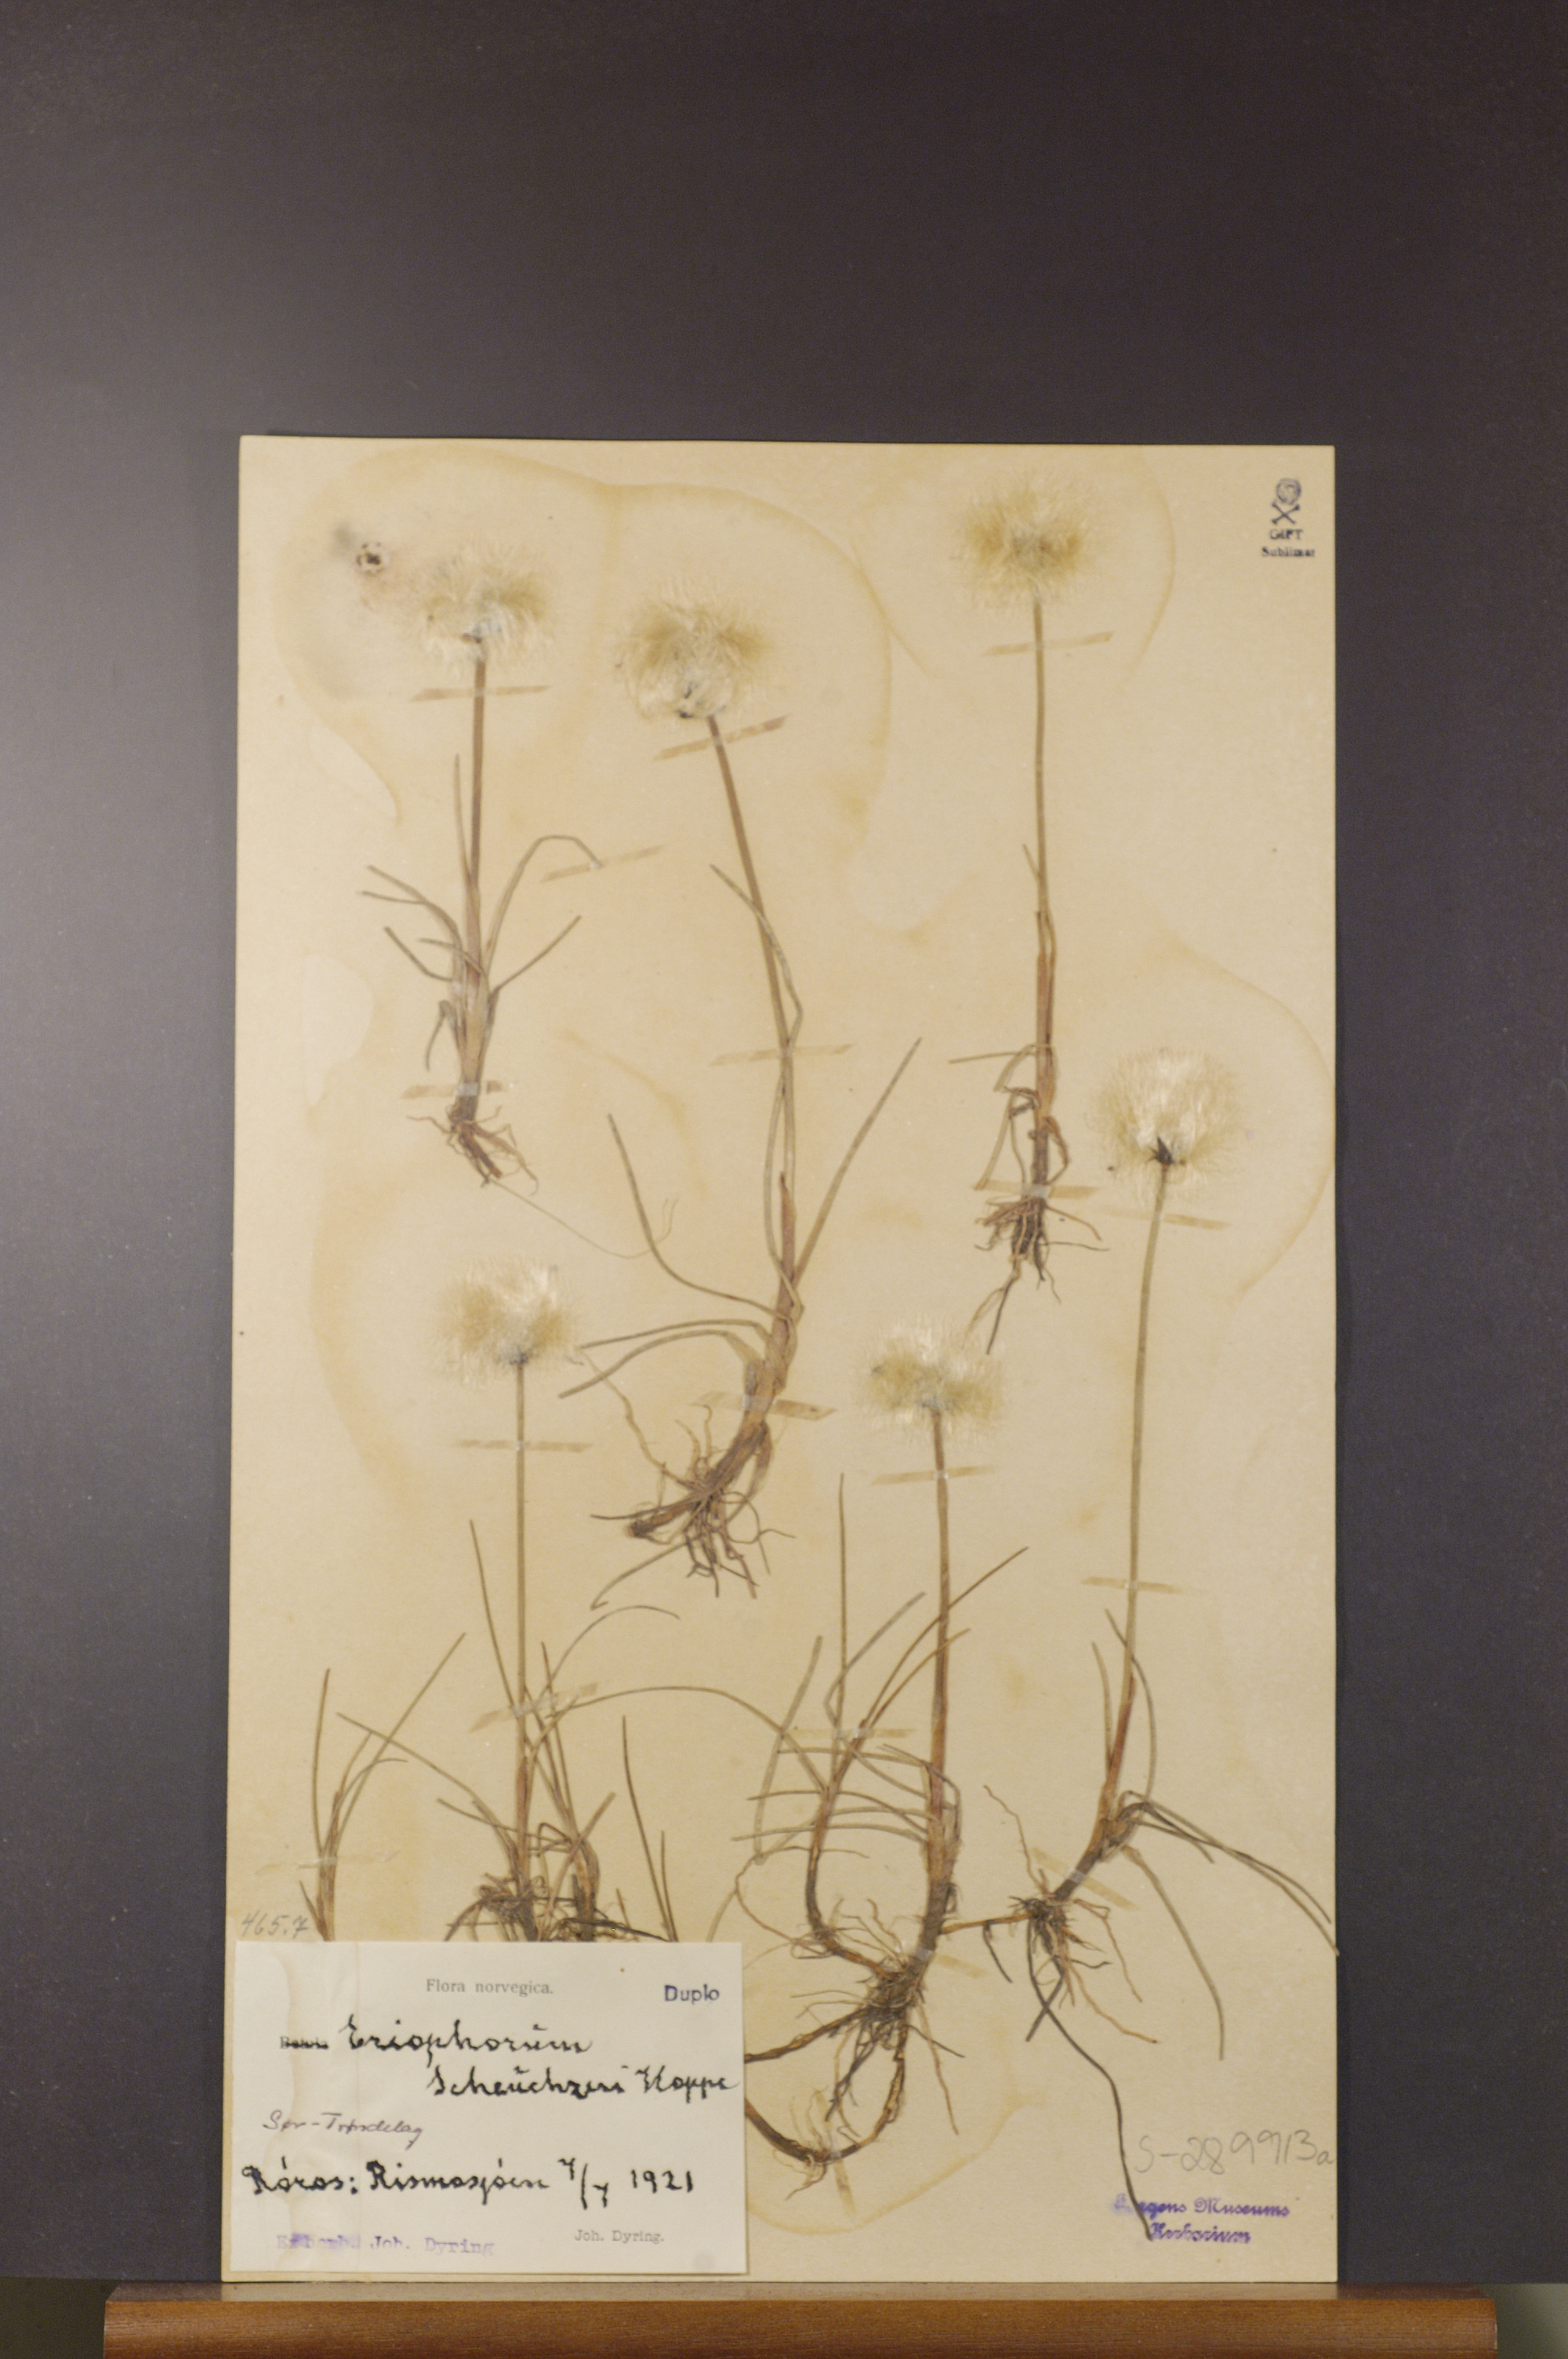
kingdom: Plantae
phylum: Tracheophyta
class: Liliopsida
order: Poales
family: Cyperaceae
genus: Eriophorum
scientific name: Eriophorum scheuchzeri
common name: Scheuchzer's cottongrass
